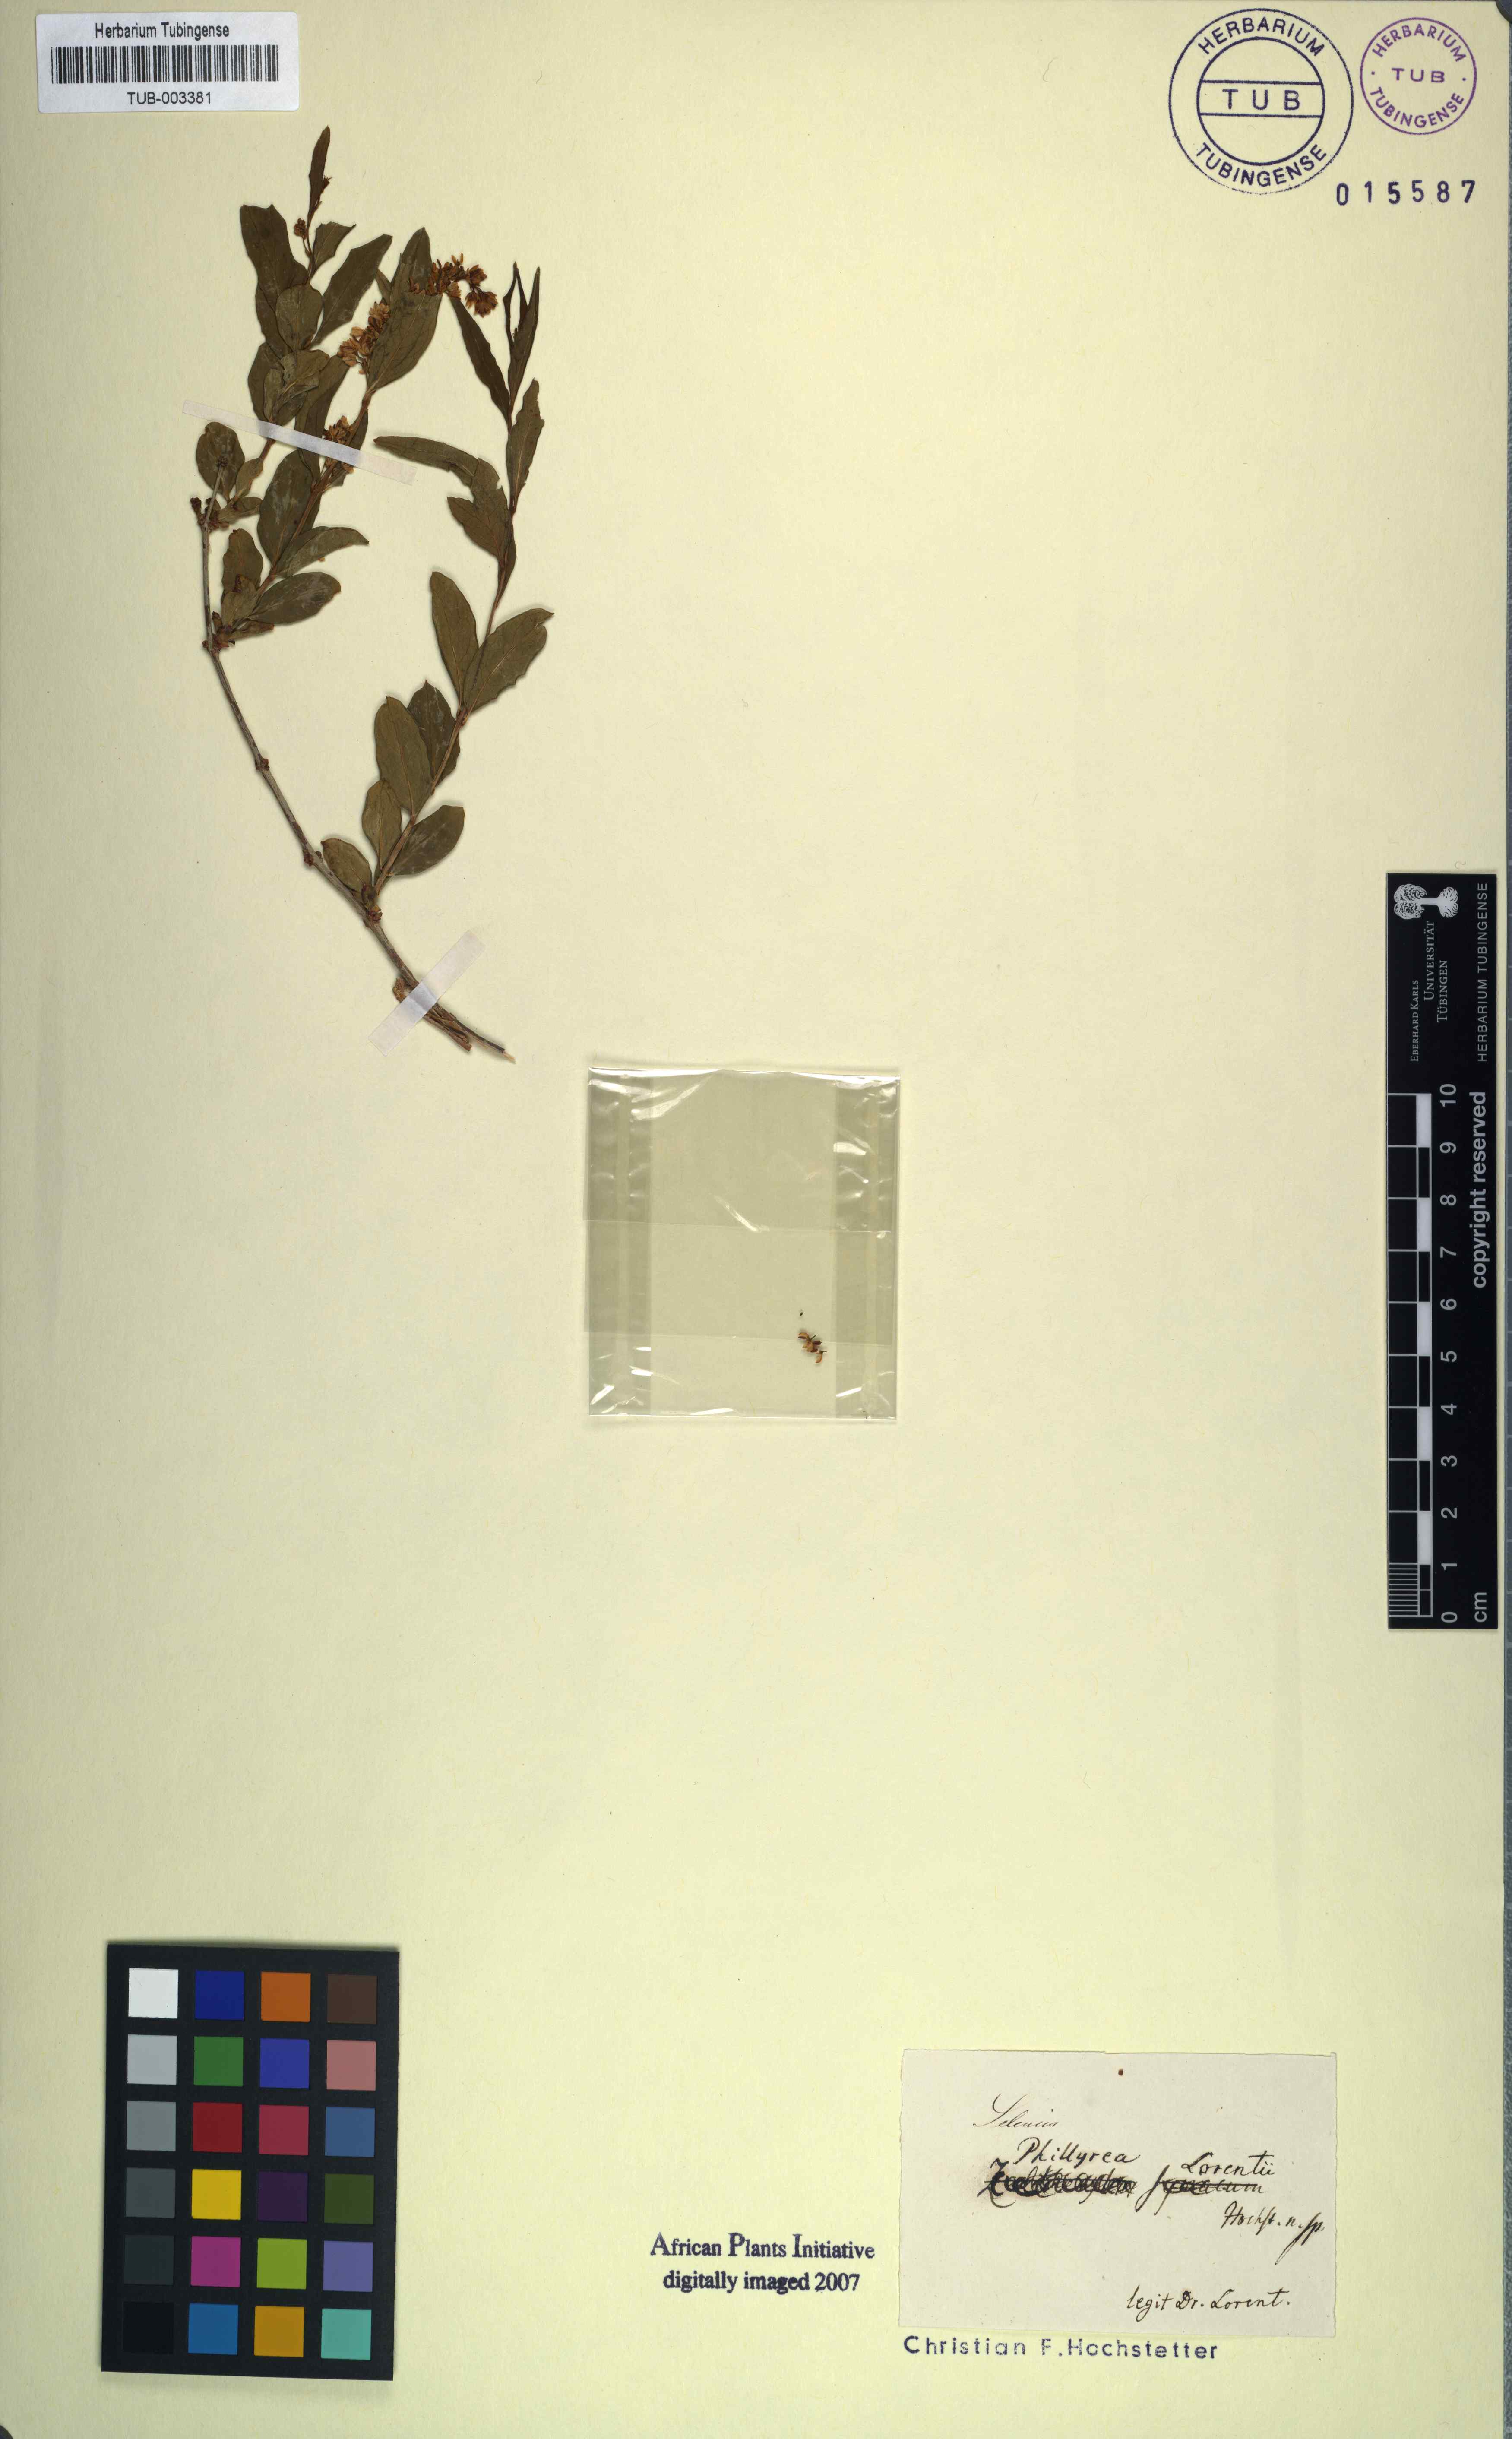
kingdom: Plantae
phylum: Tracheophyta
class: Magnoliopsida
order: Lamiales
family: Oleaceae
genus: Olea
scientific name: Olea europaea
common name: Olive
